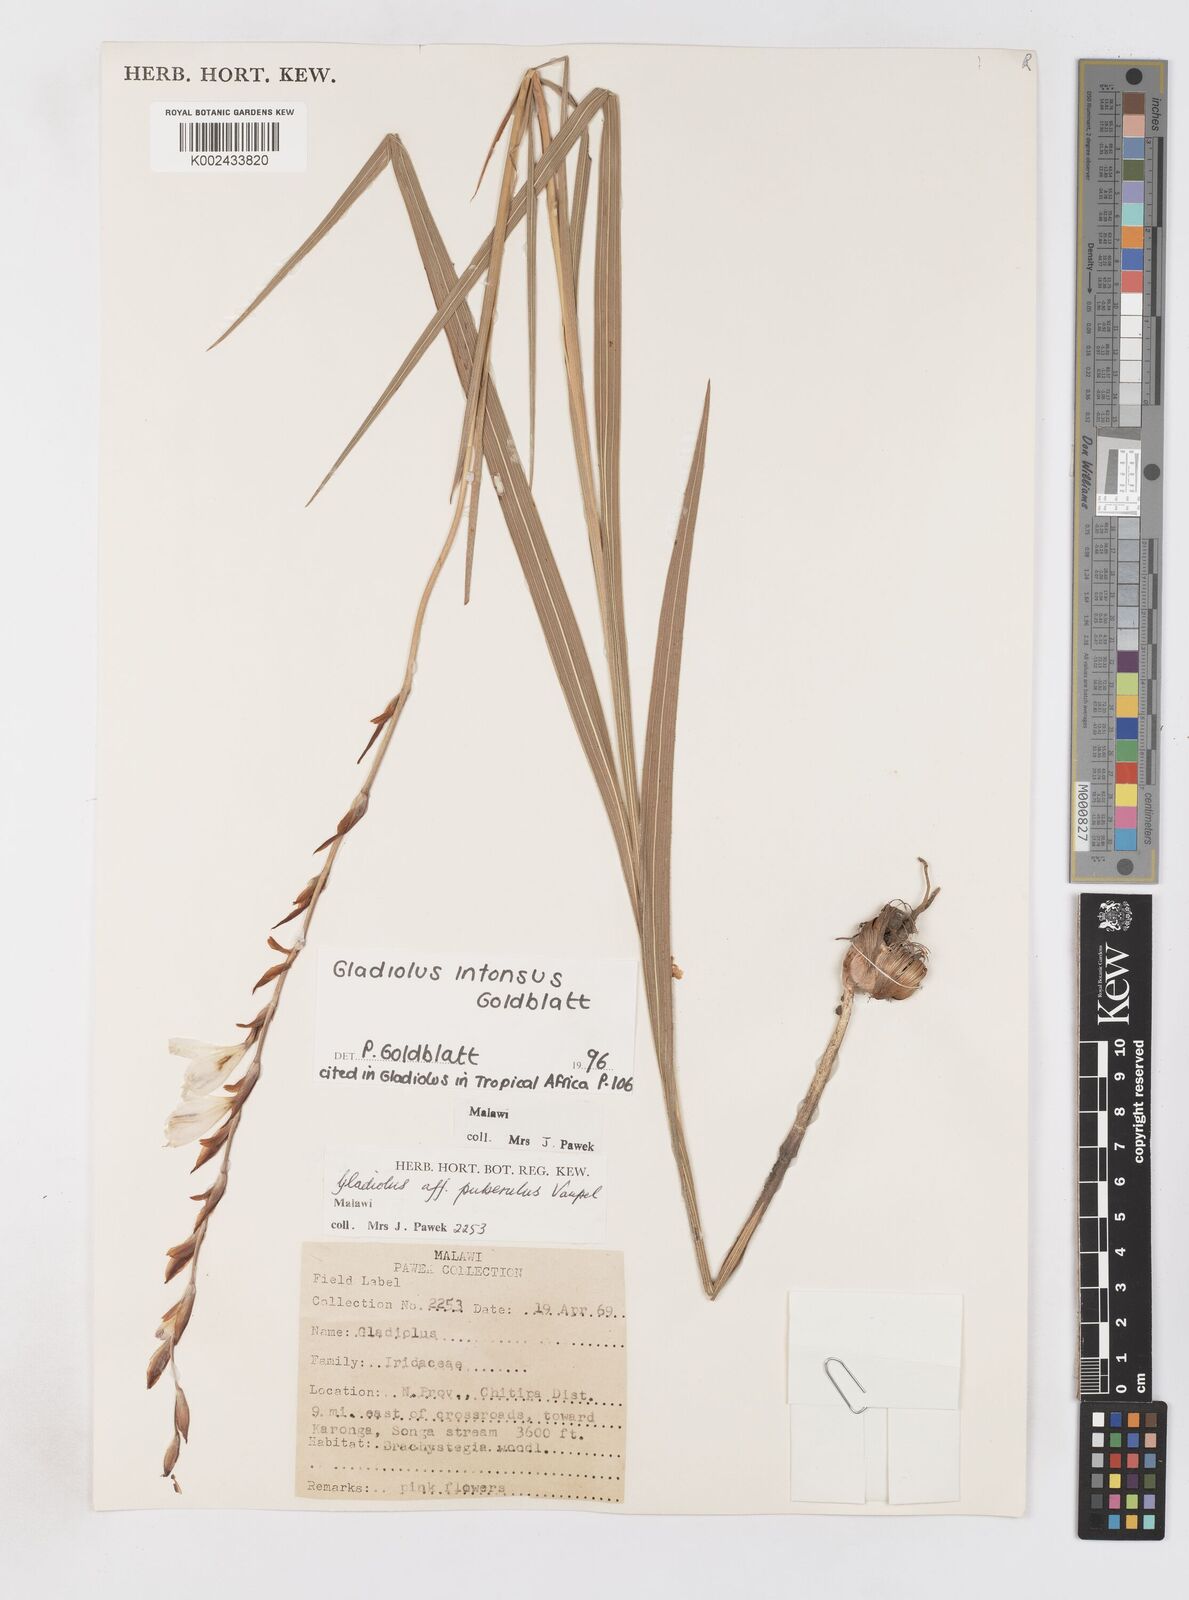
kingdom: Plantae
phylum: Tracheophyta
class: Liliopsida
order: Asparagales
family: Iridaceae
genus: Gladiolus
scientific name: Gladiolus intonsus
